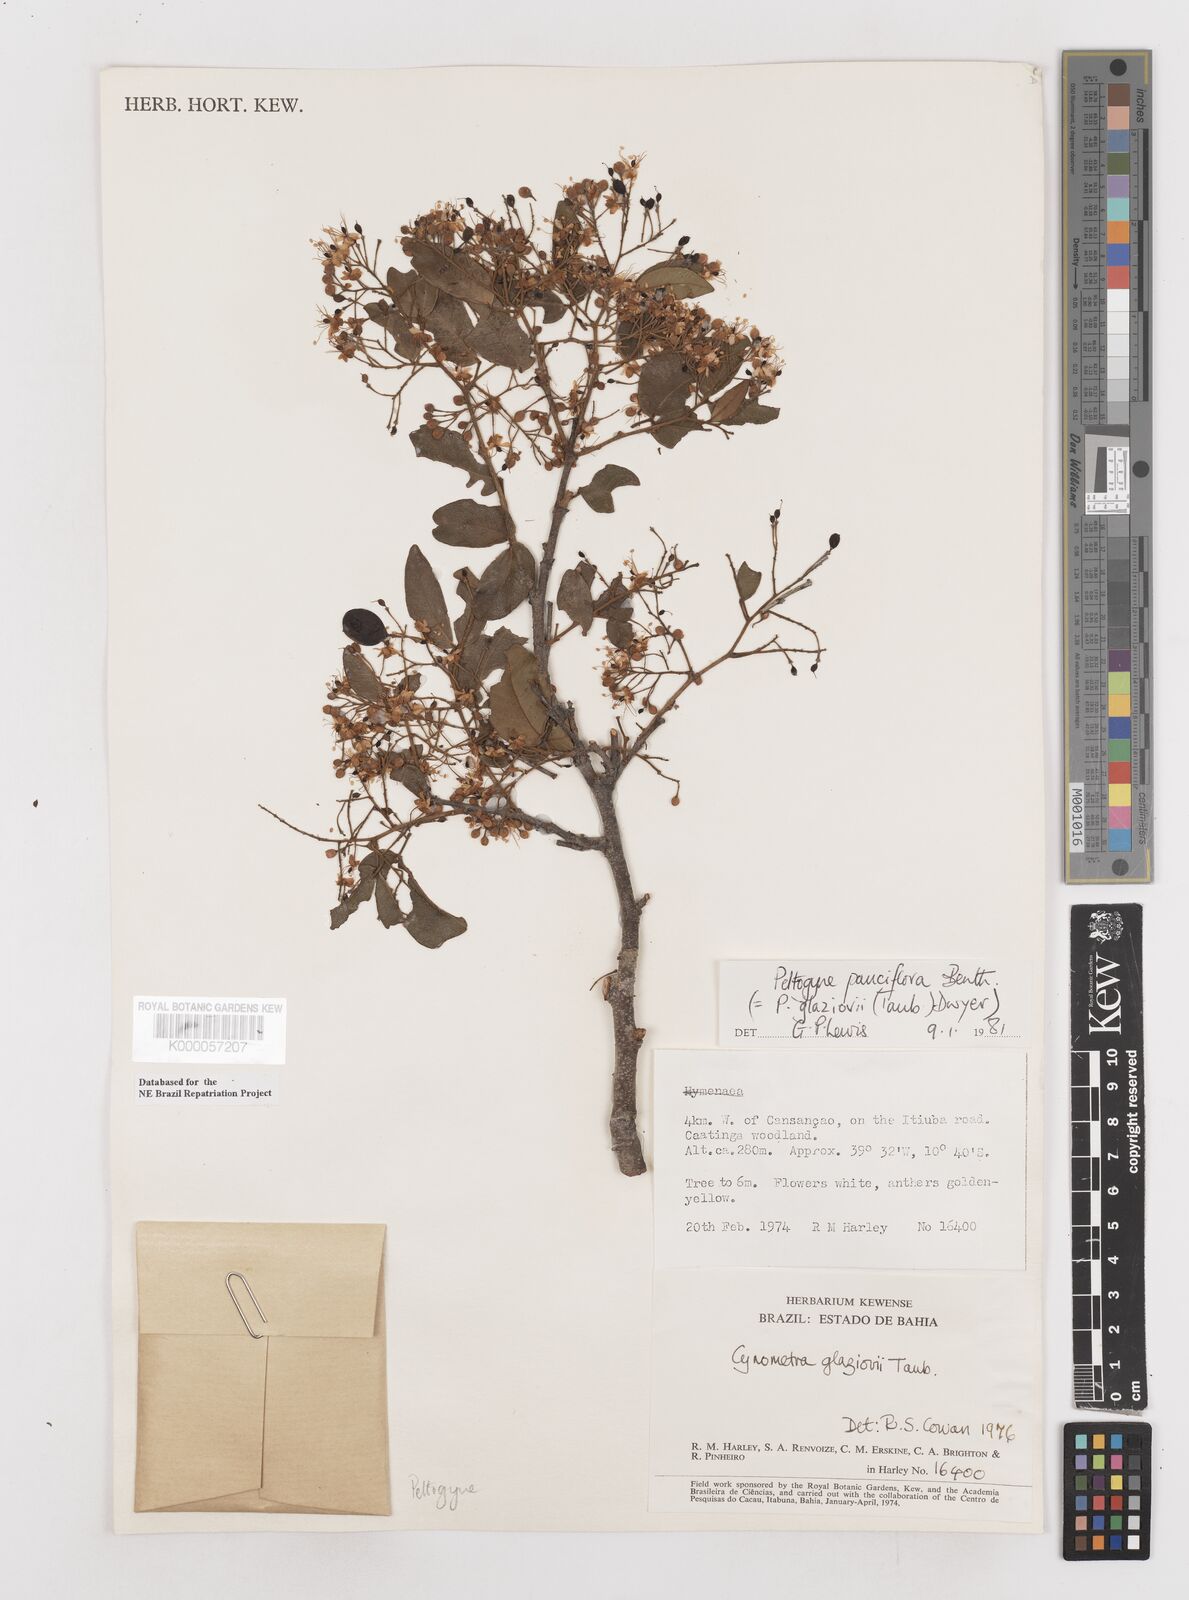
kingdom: Plantae
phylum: Tracheophyta
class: Magnoliopsida
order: Fabales
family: Fabaceae
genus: Peltogyne
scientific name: Peltogyne pauciflora
